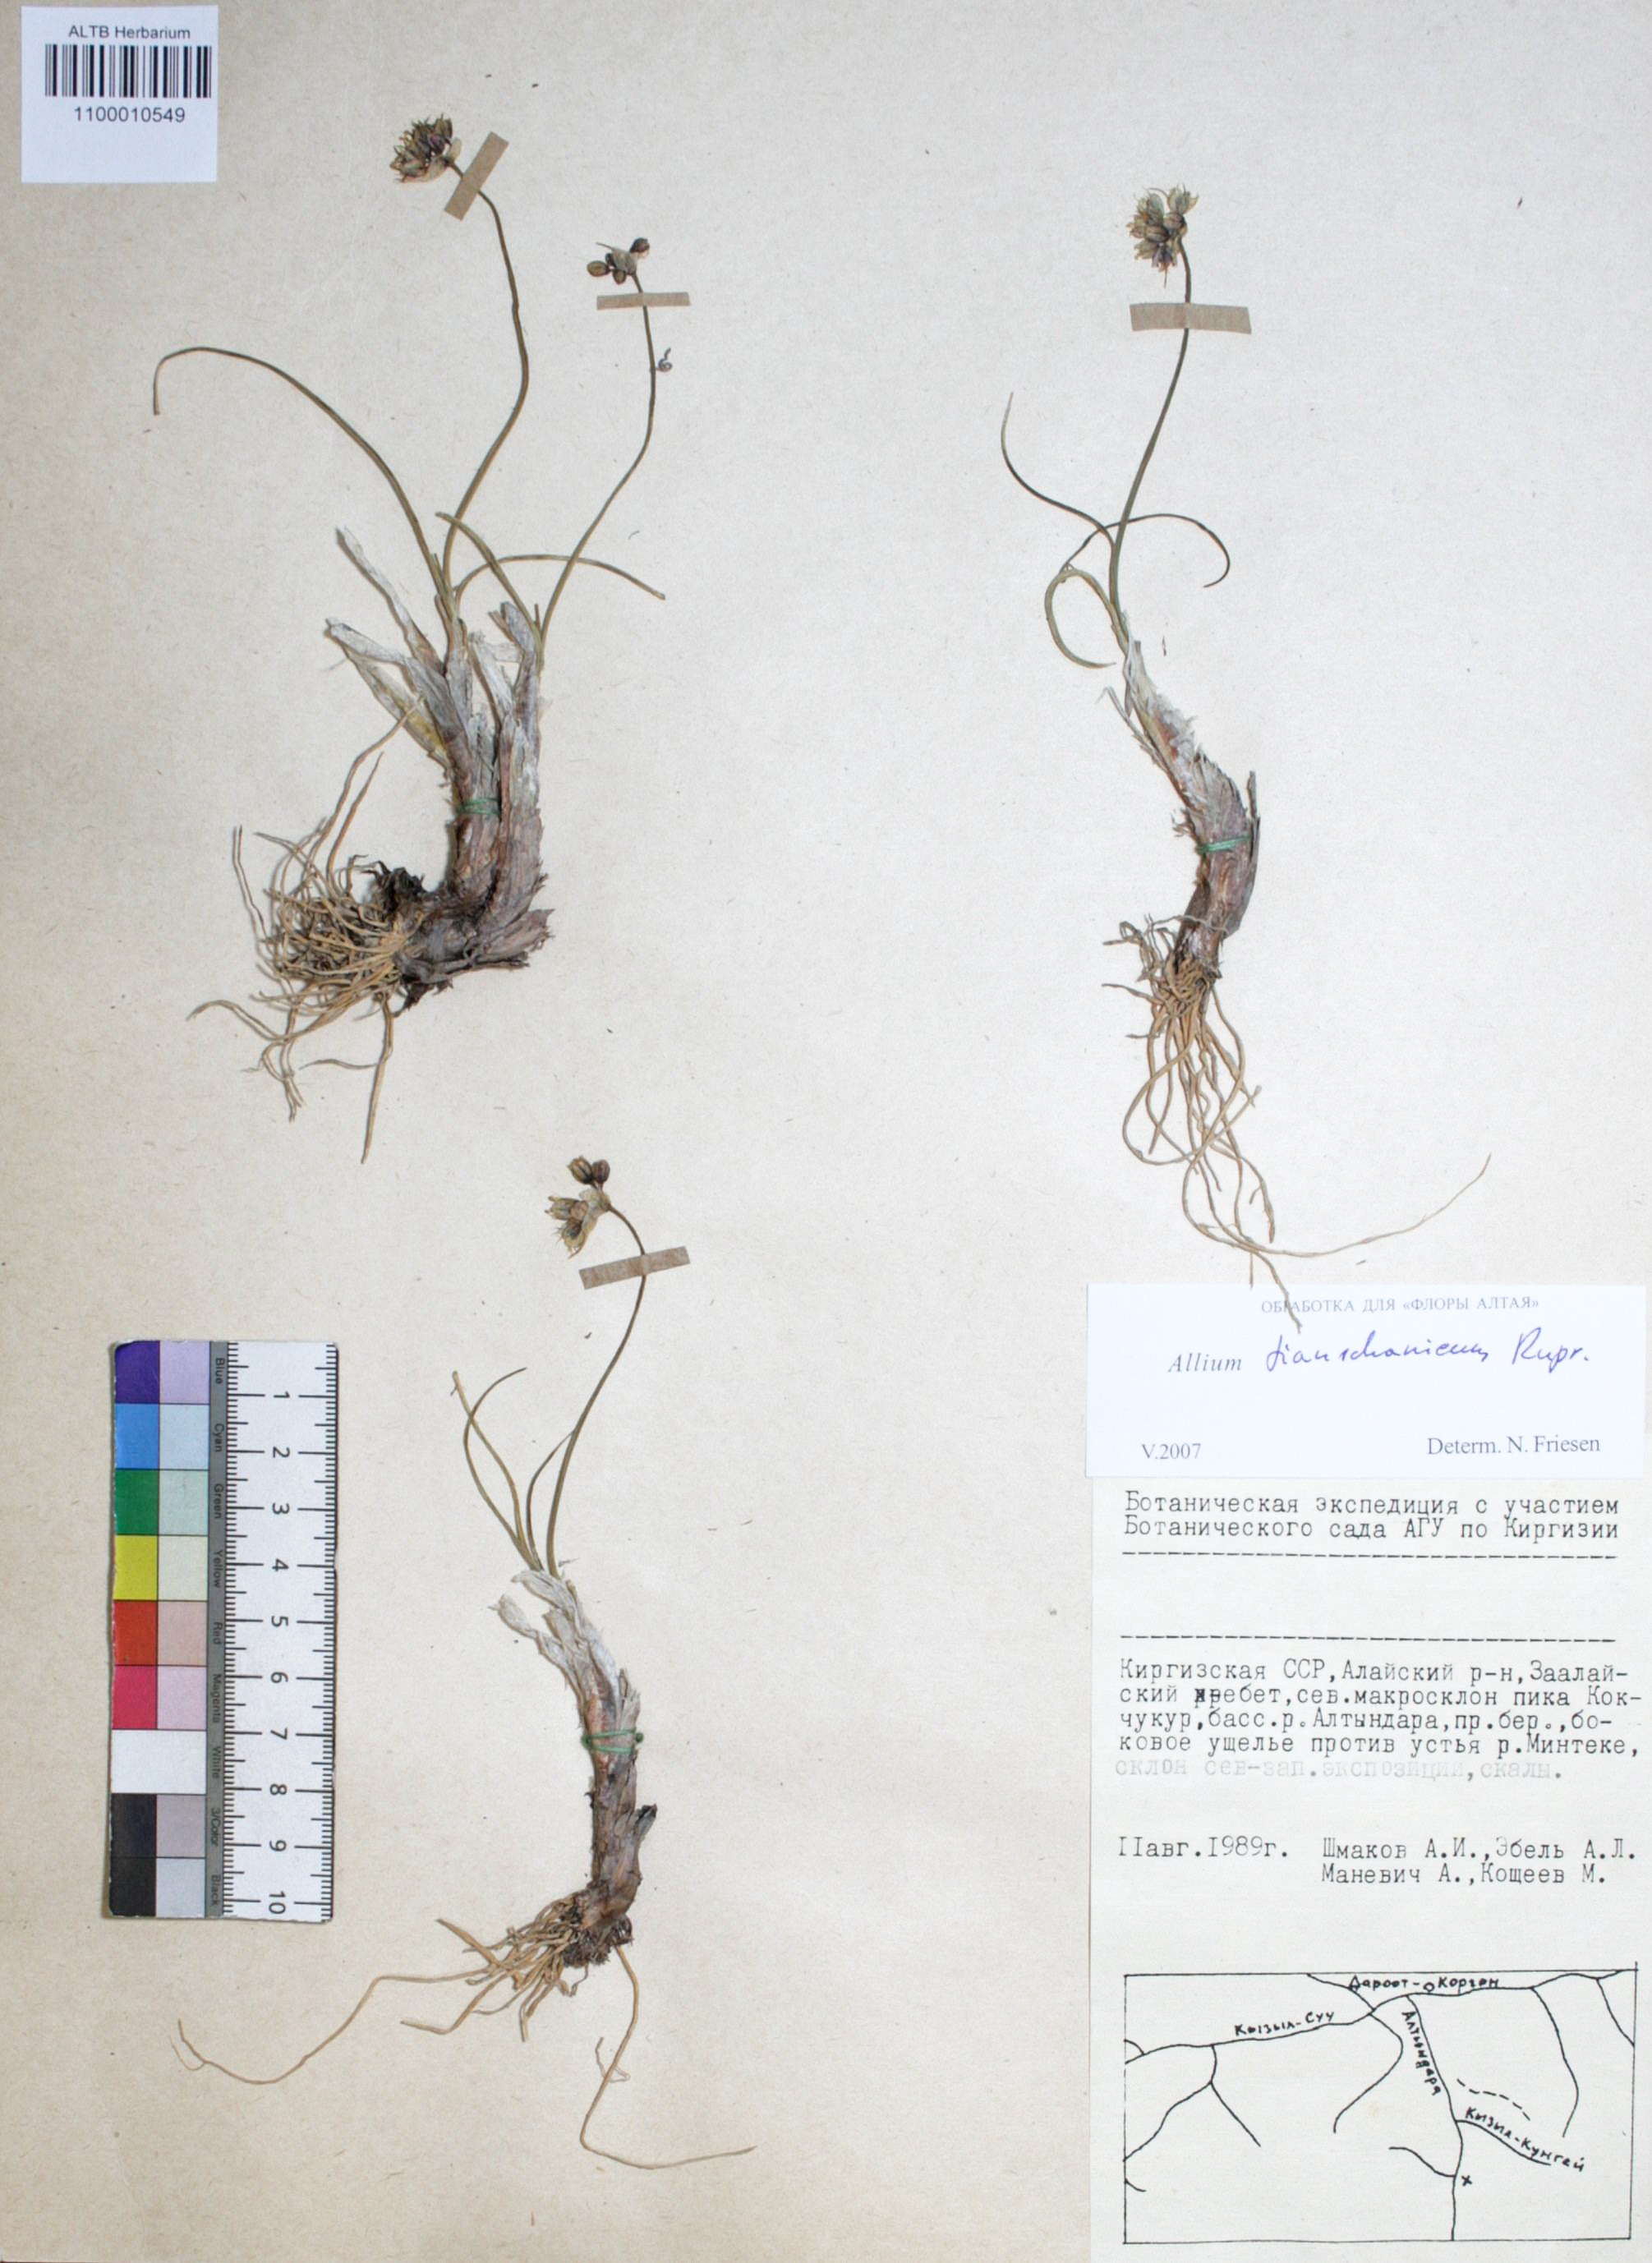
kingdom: Plantae
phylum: Tracheophyta
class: Liliopsida
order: Asparagales
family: Amaryllidaceae
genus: Allium
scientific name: Allium tianschanicum
